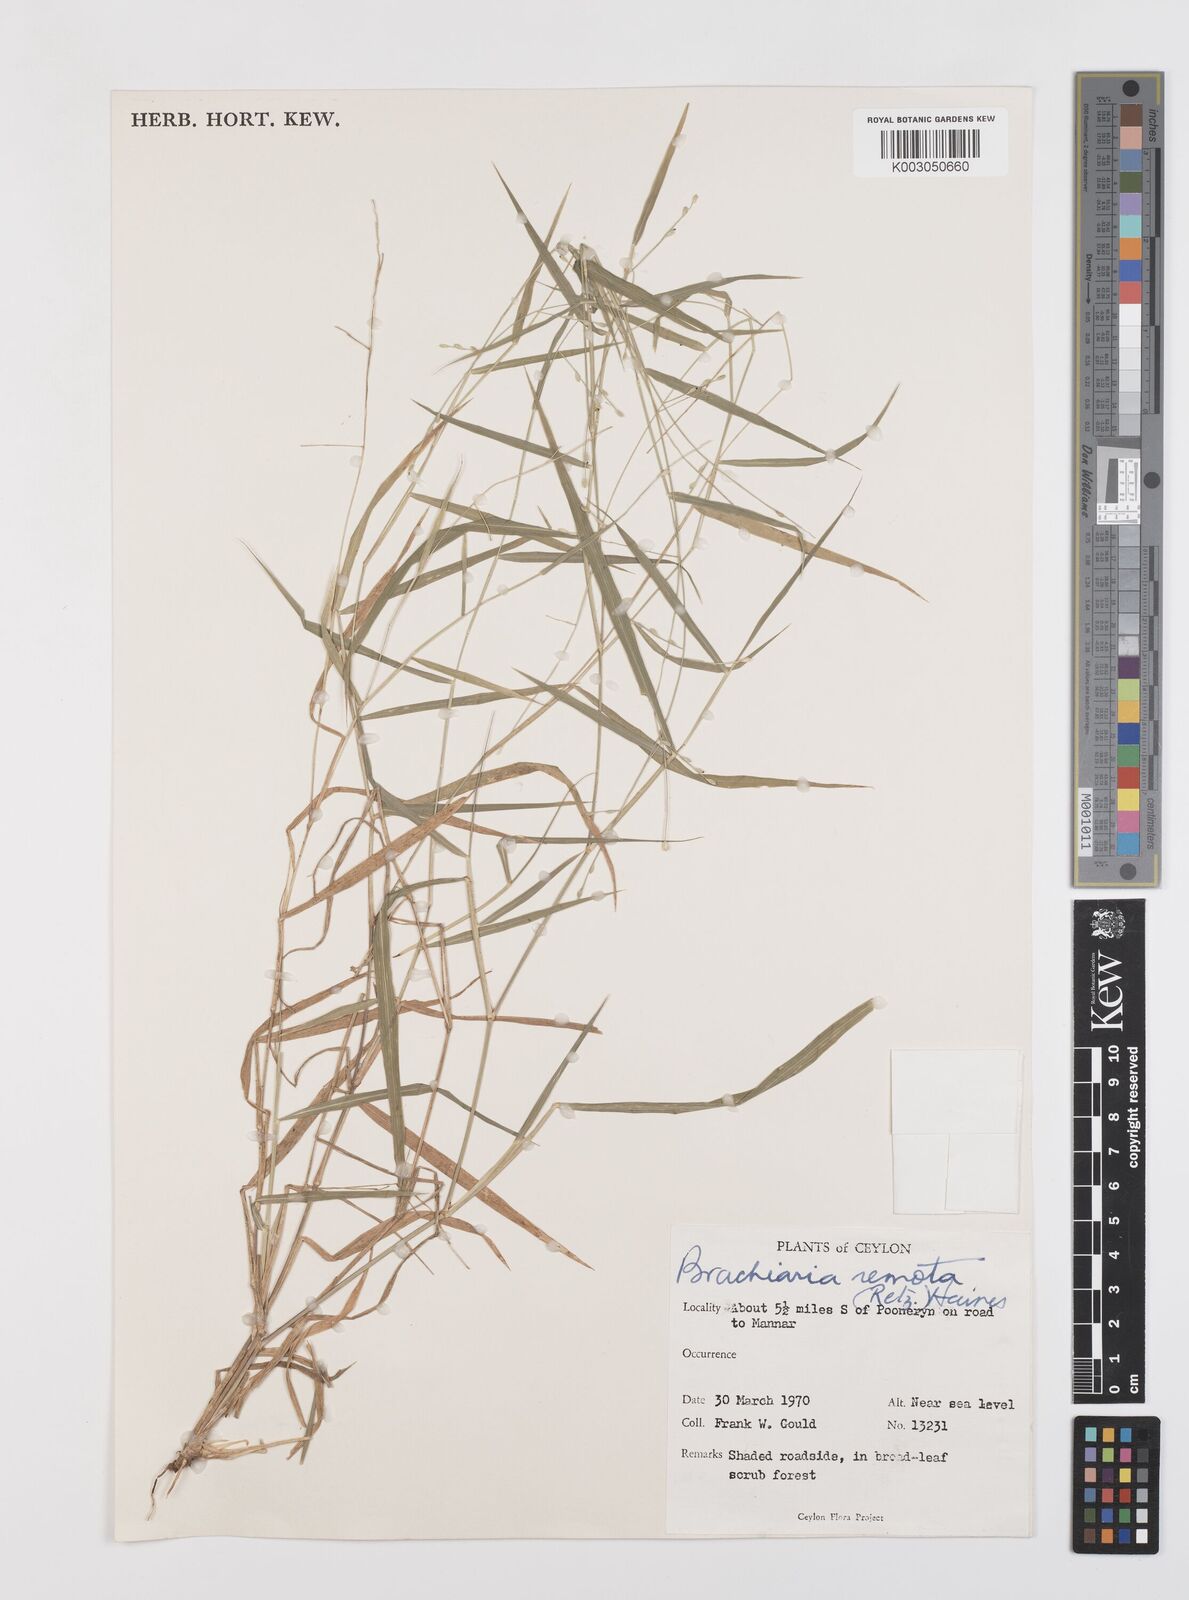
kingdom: Plantae
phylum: Tracheophyta
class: Liliopsida
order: Poales
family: Poaceae
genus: Urochloa
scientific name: Urochloa Brachiaria remota
